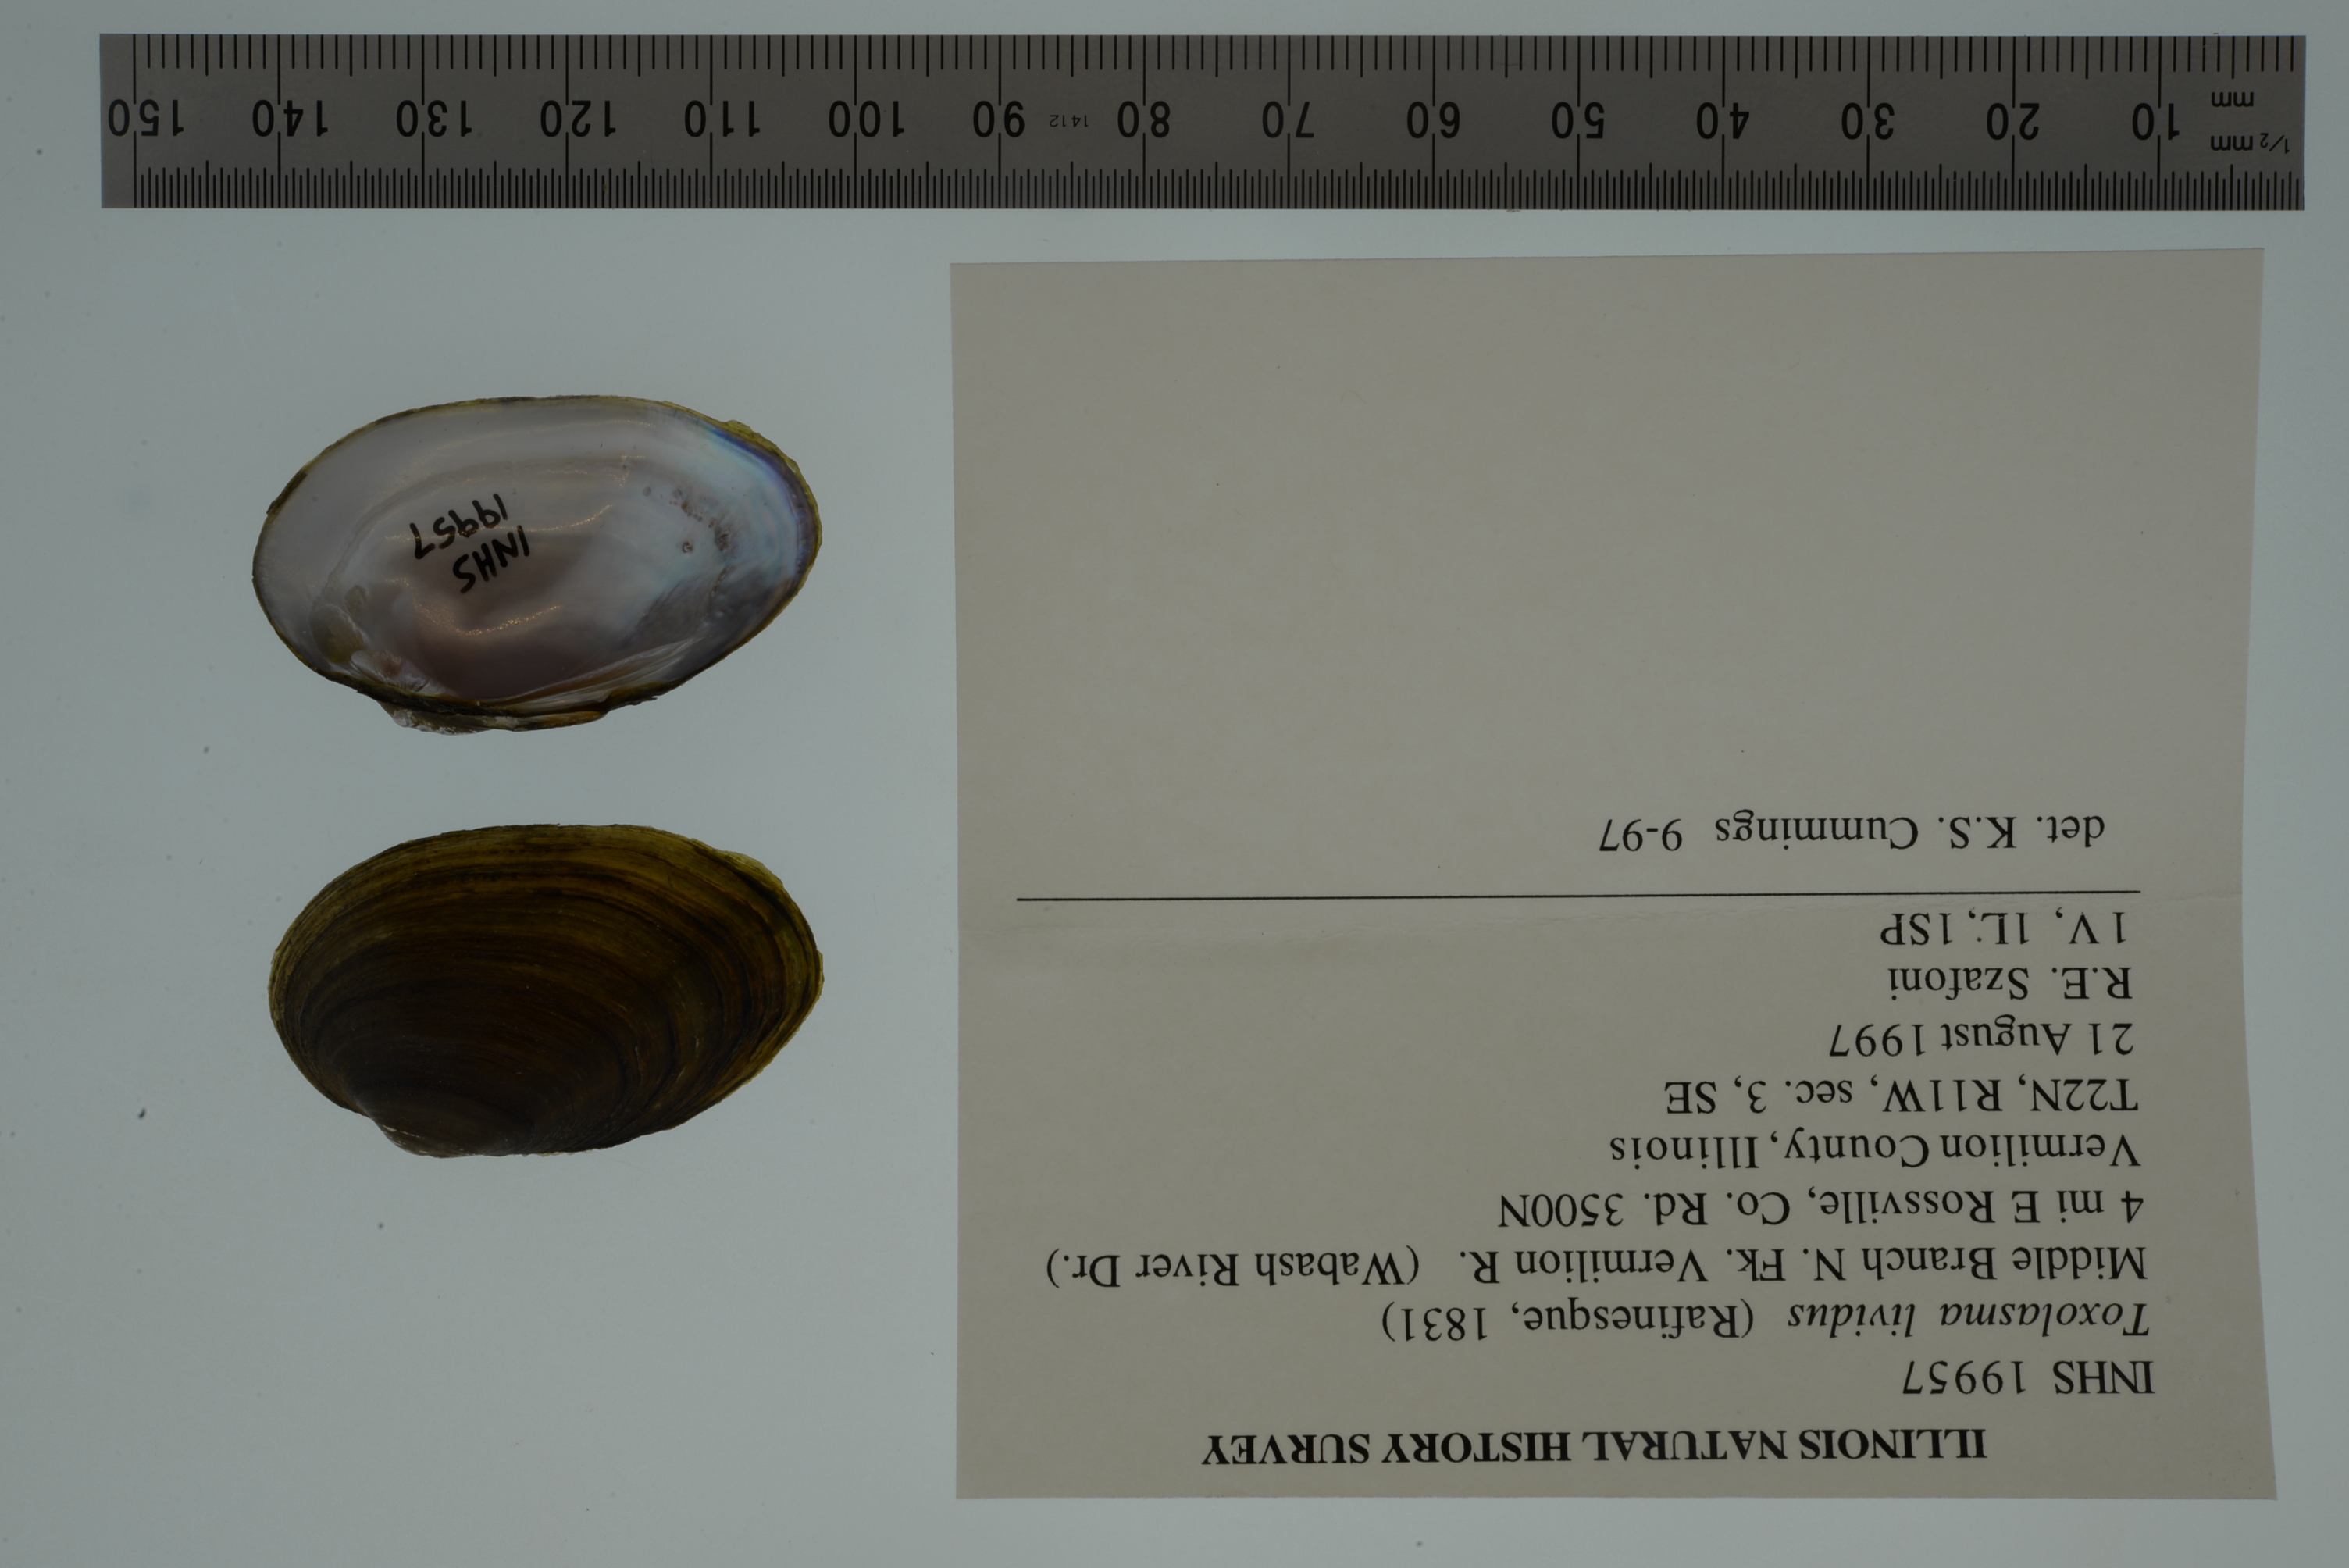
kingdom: Animalia
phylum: Mollusca
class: Bivalvia
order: Unionida
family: Unionidae
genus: Toxolasma
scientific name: Toxolasma lividum
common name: Purple lilliput
